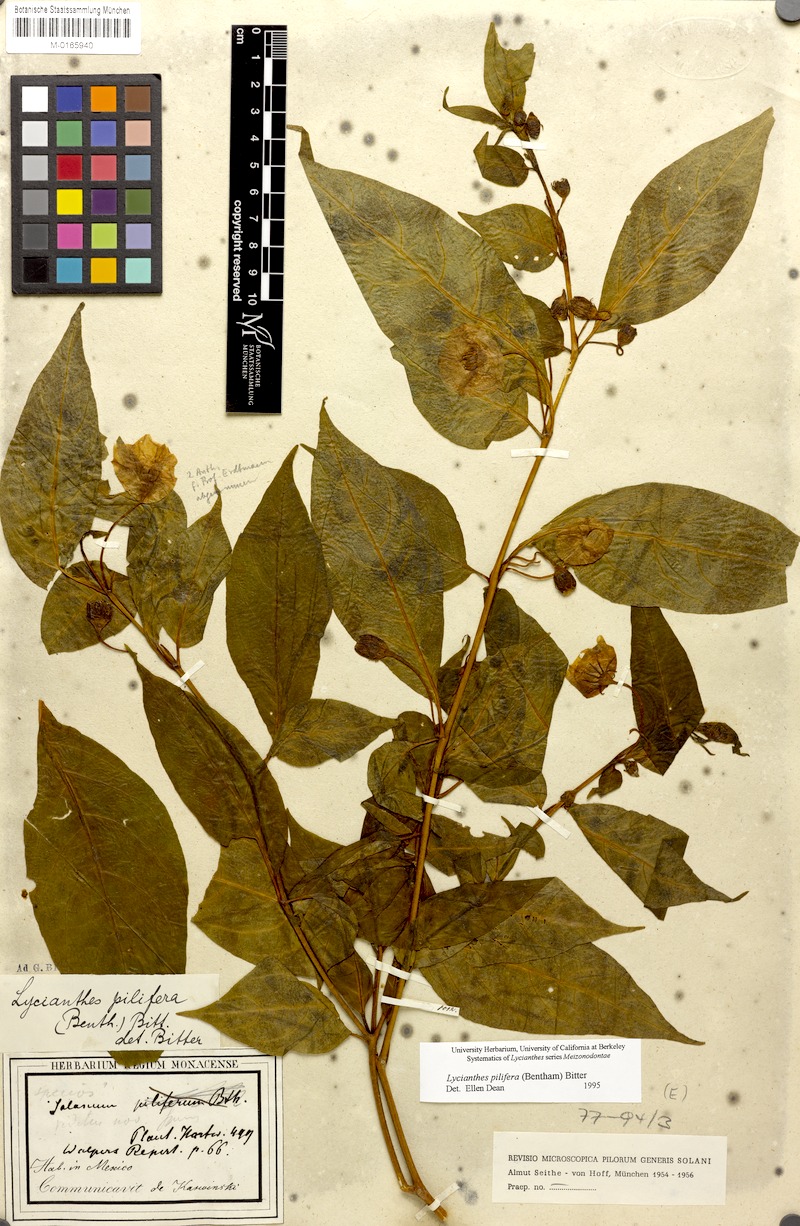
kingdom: Plantae
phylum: Tracheophyta
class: Magnoliopsida
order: Solanales
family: Solanaceae
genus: Lycianthes
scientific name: Lycianthes pilifera
